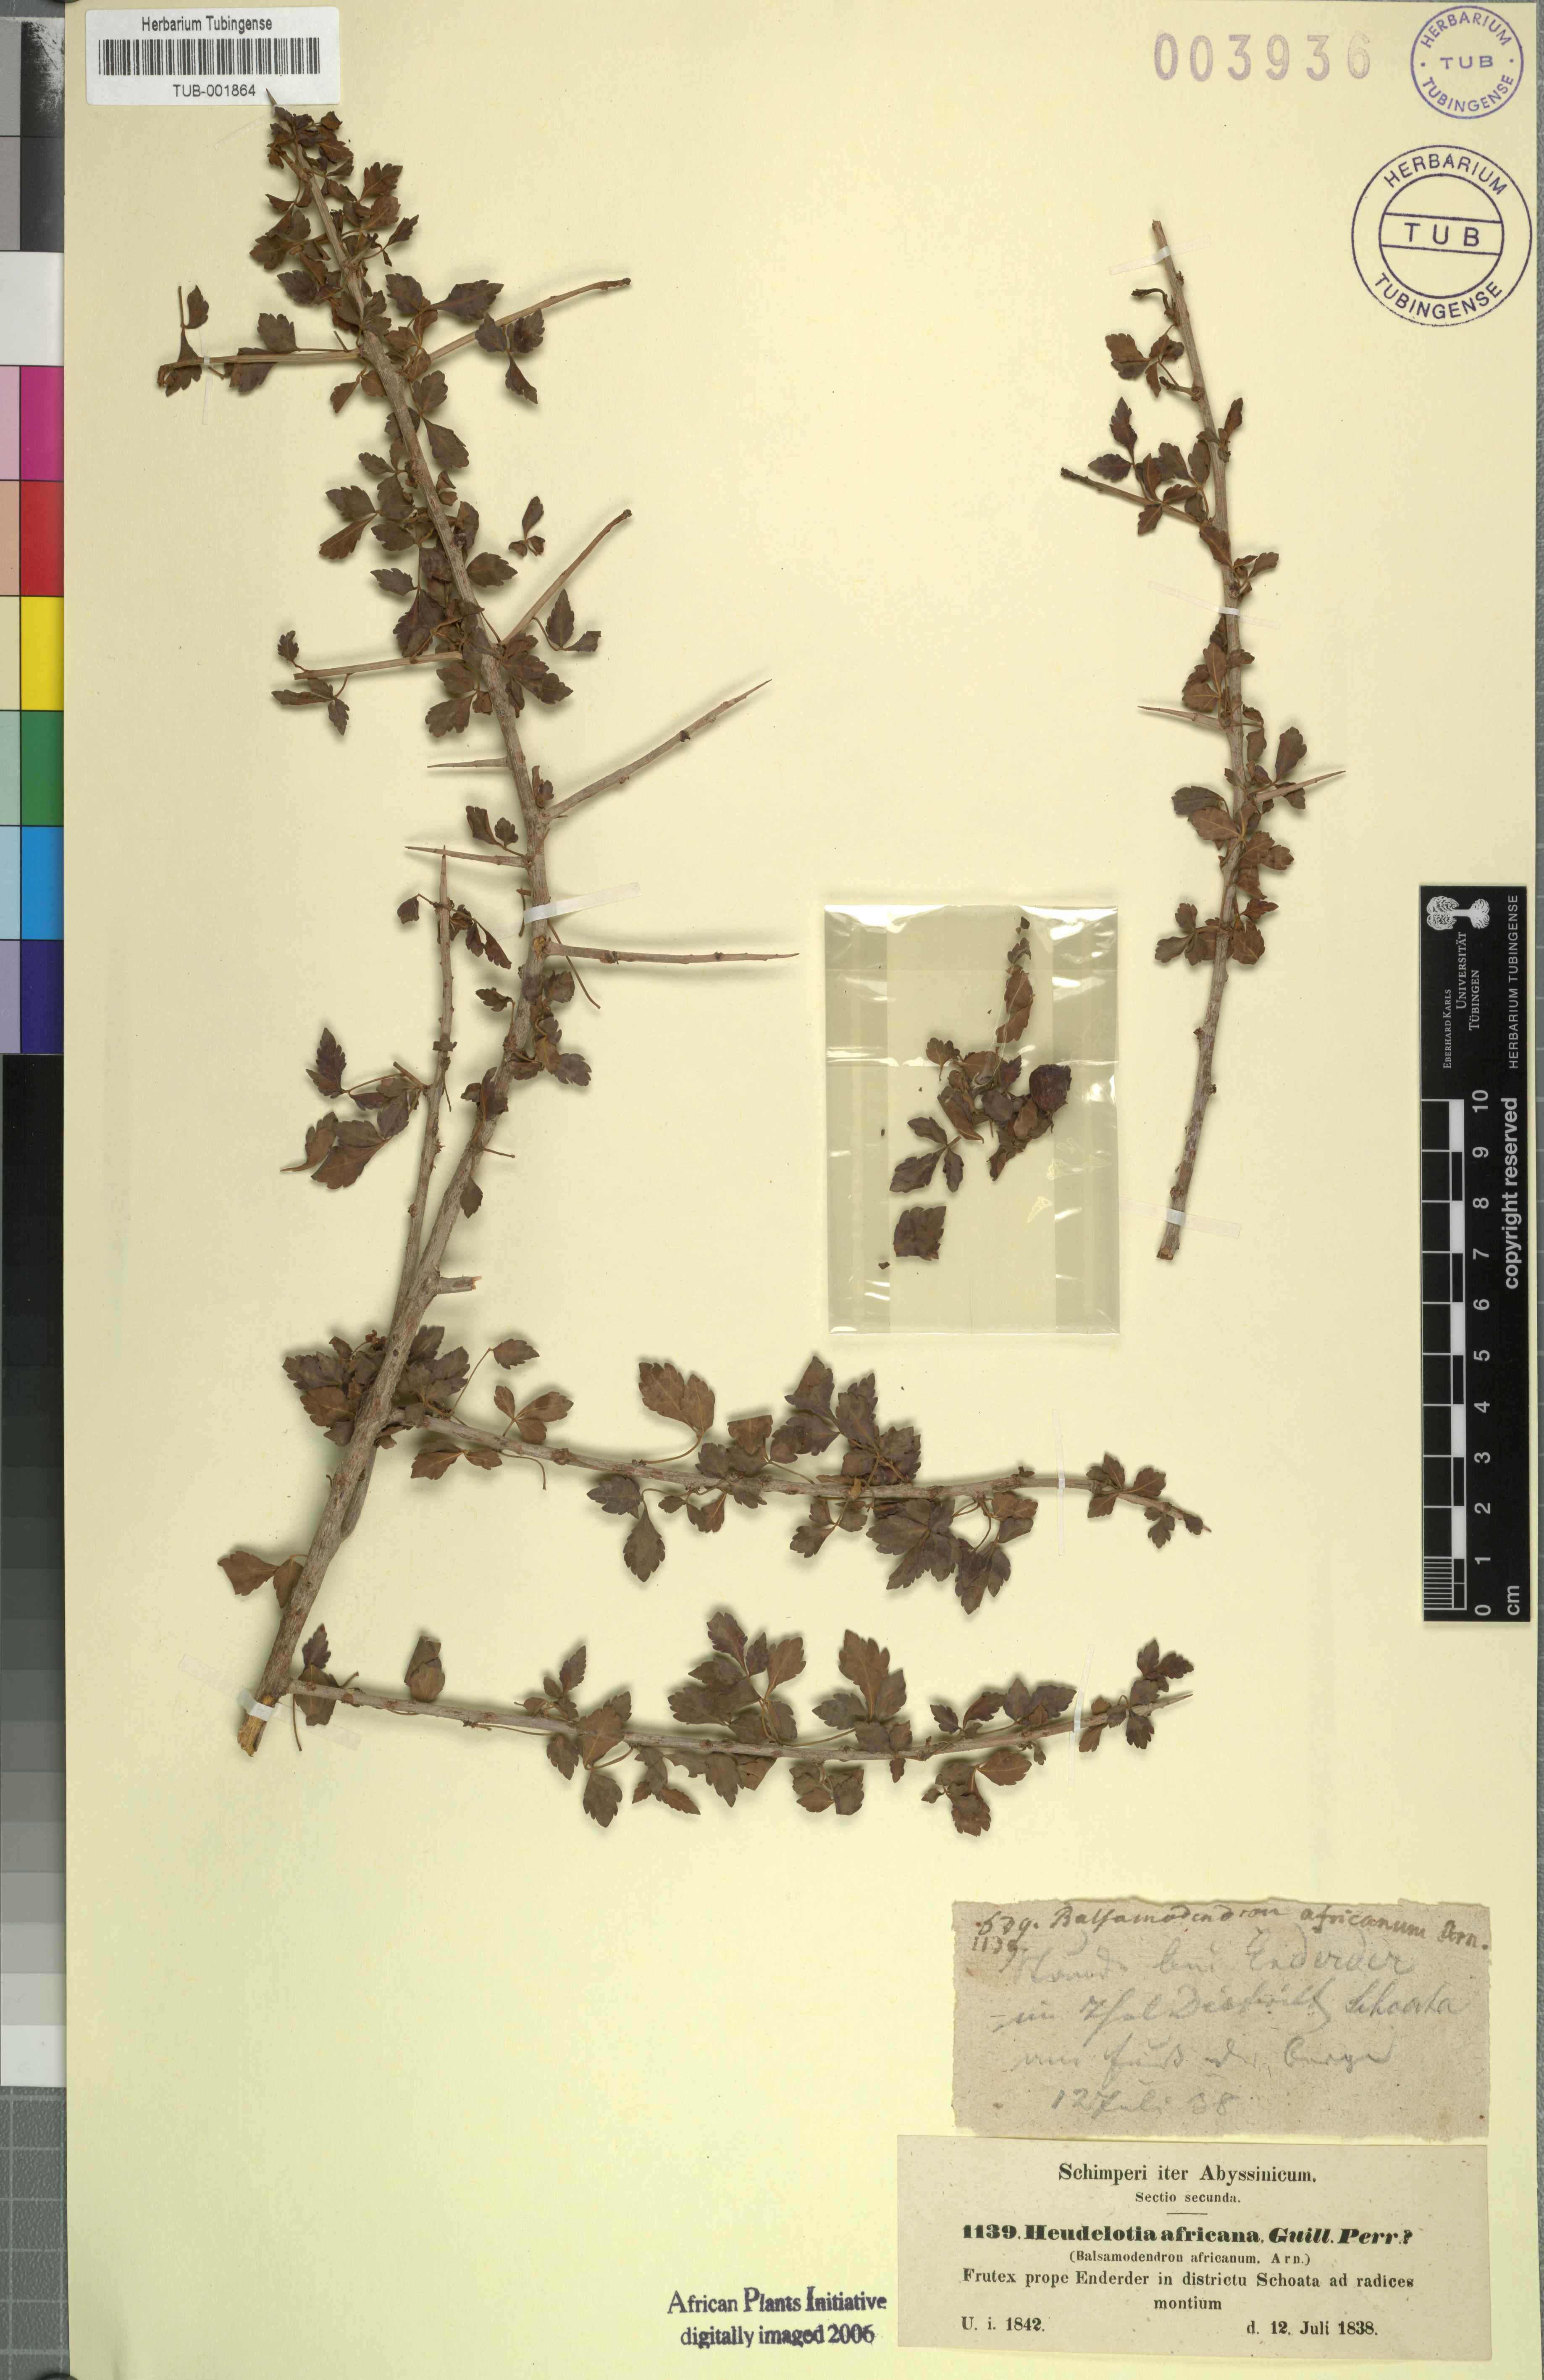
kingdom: Plantae
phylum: Tracheophyta
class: Magnoliopsida
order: Sapindales
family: Burseraceae
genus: Commiphora
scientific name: Commiphora africana
